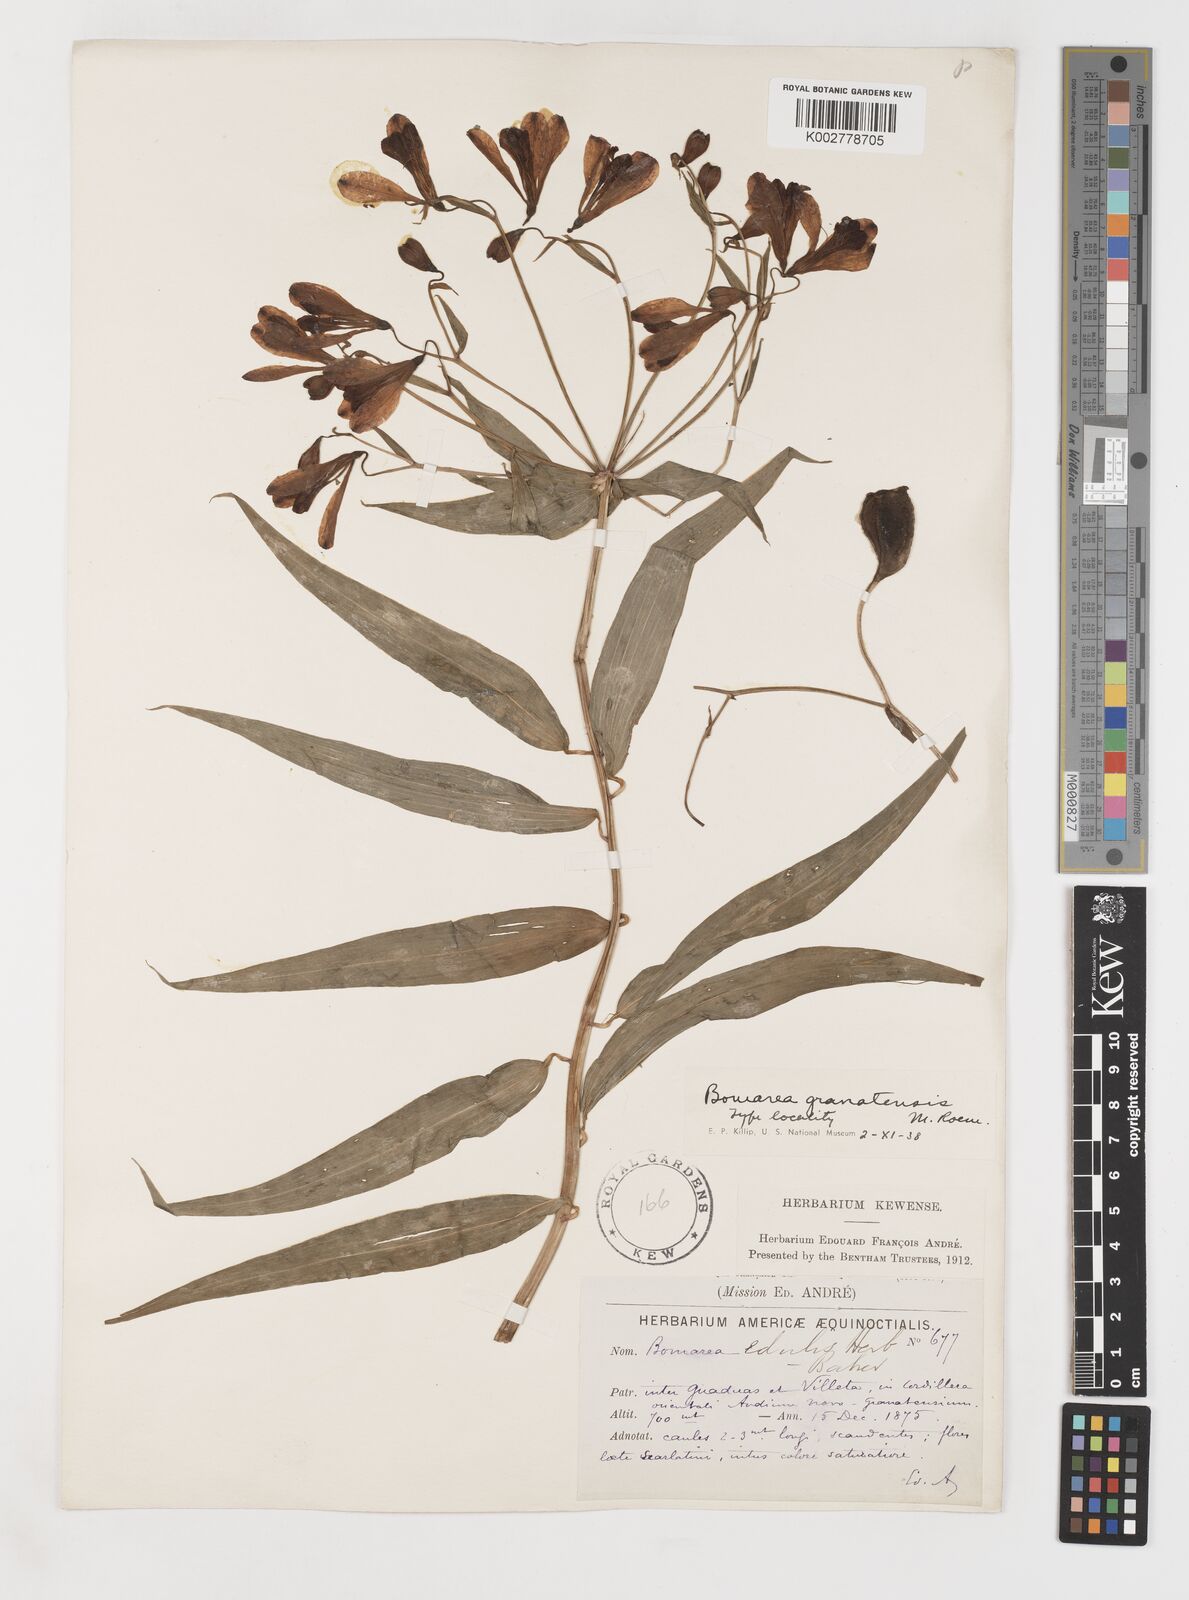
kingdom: Plantae
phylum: Tracheophyta
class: Liliopsida
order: Liliales
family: Alstroemeriaceae
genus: Bomarea
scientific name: Bomarea edulis
